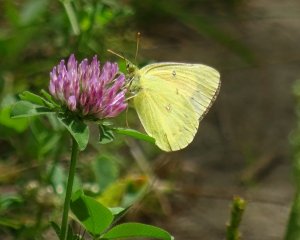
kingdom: Animalia
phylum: Arthropoda
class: Insecta
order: Lepidoptera
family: Pieridae
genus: Colias
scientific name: Colias philodice
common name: Clouded Sulphur
